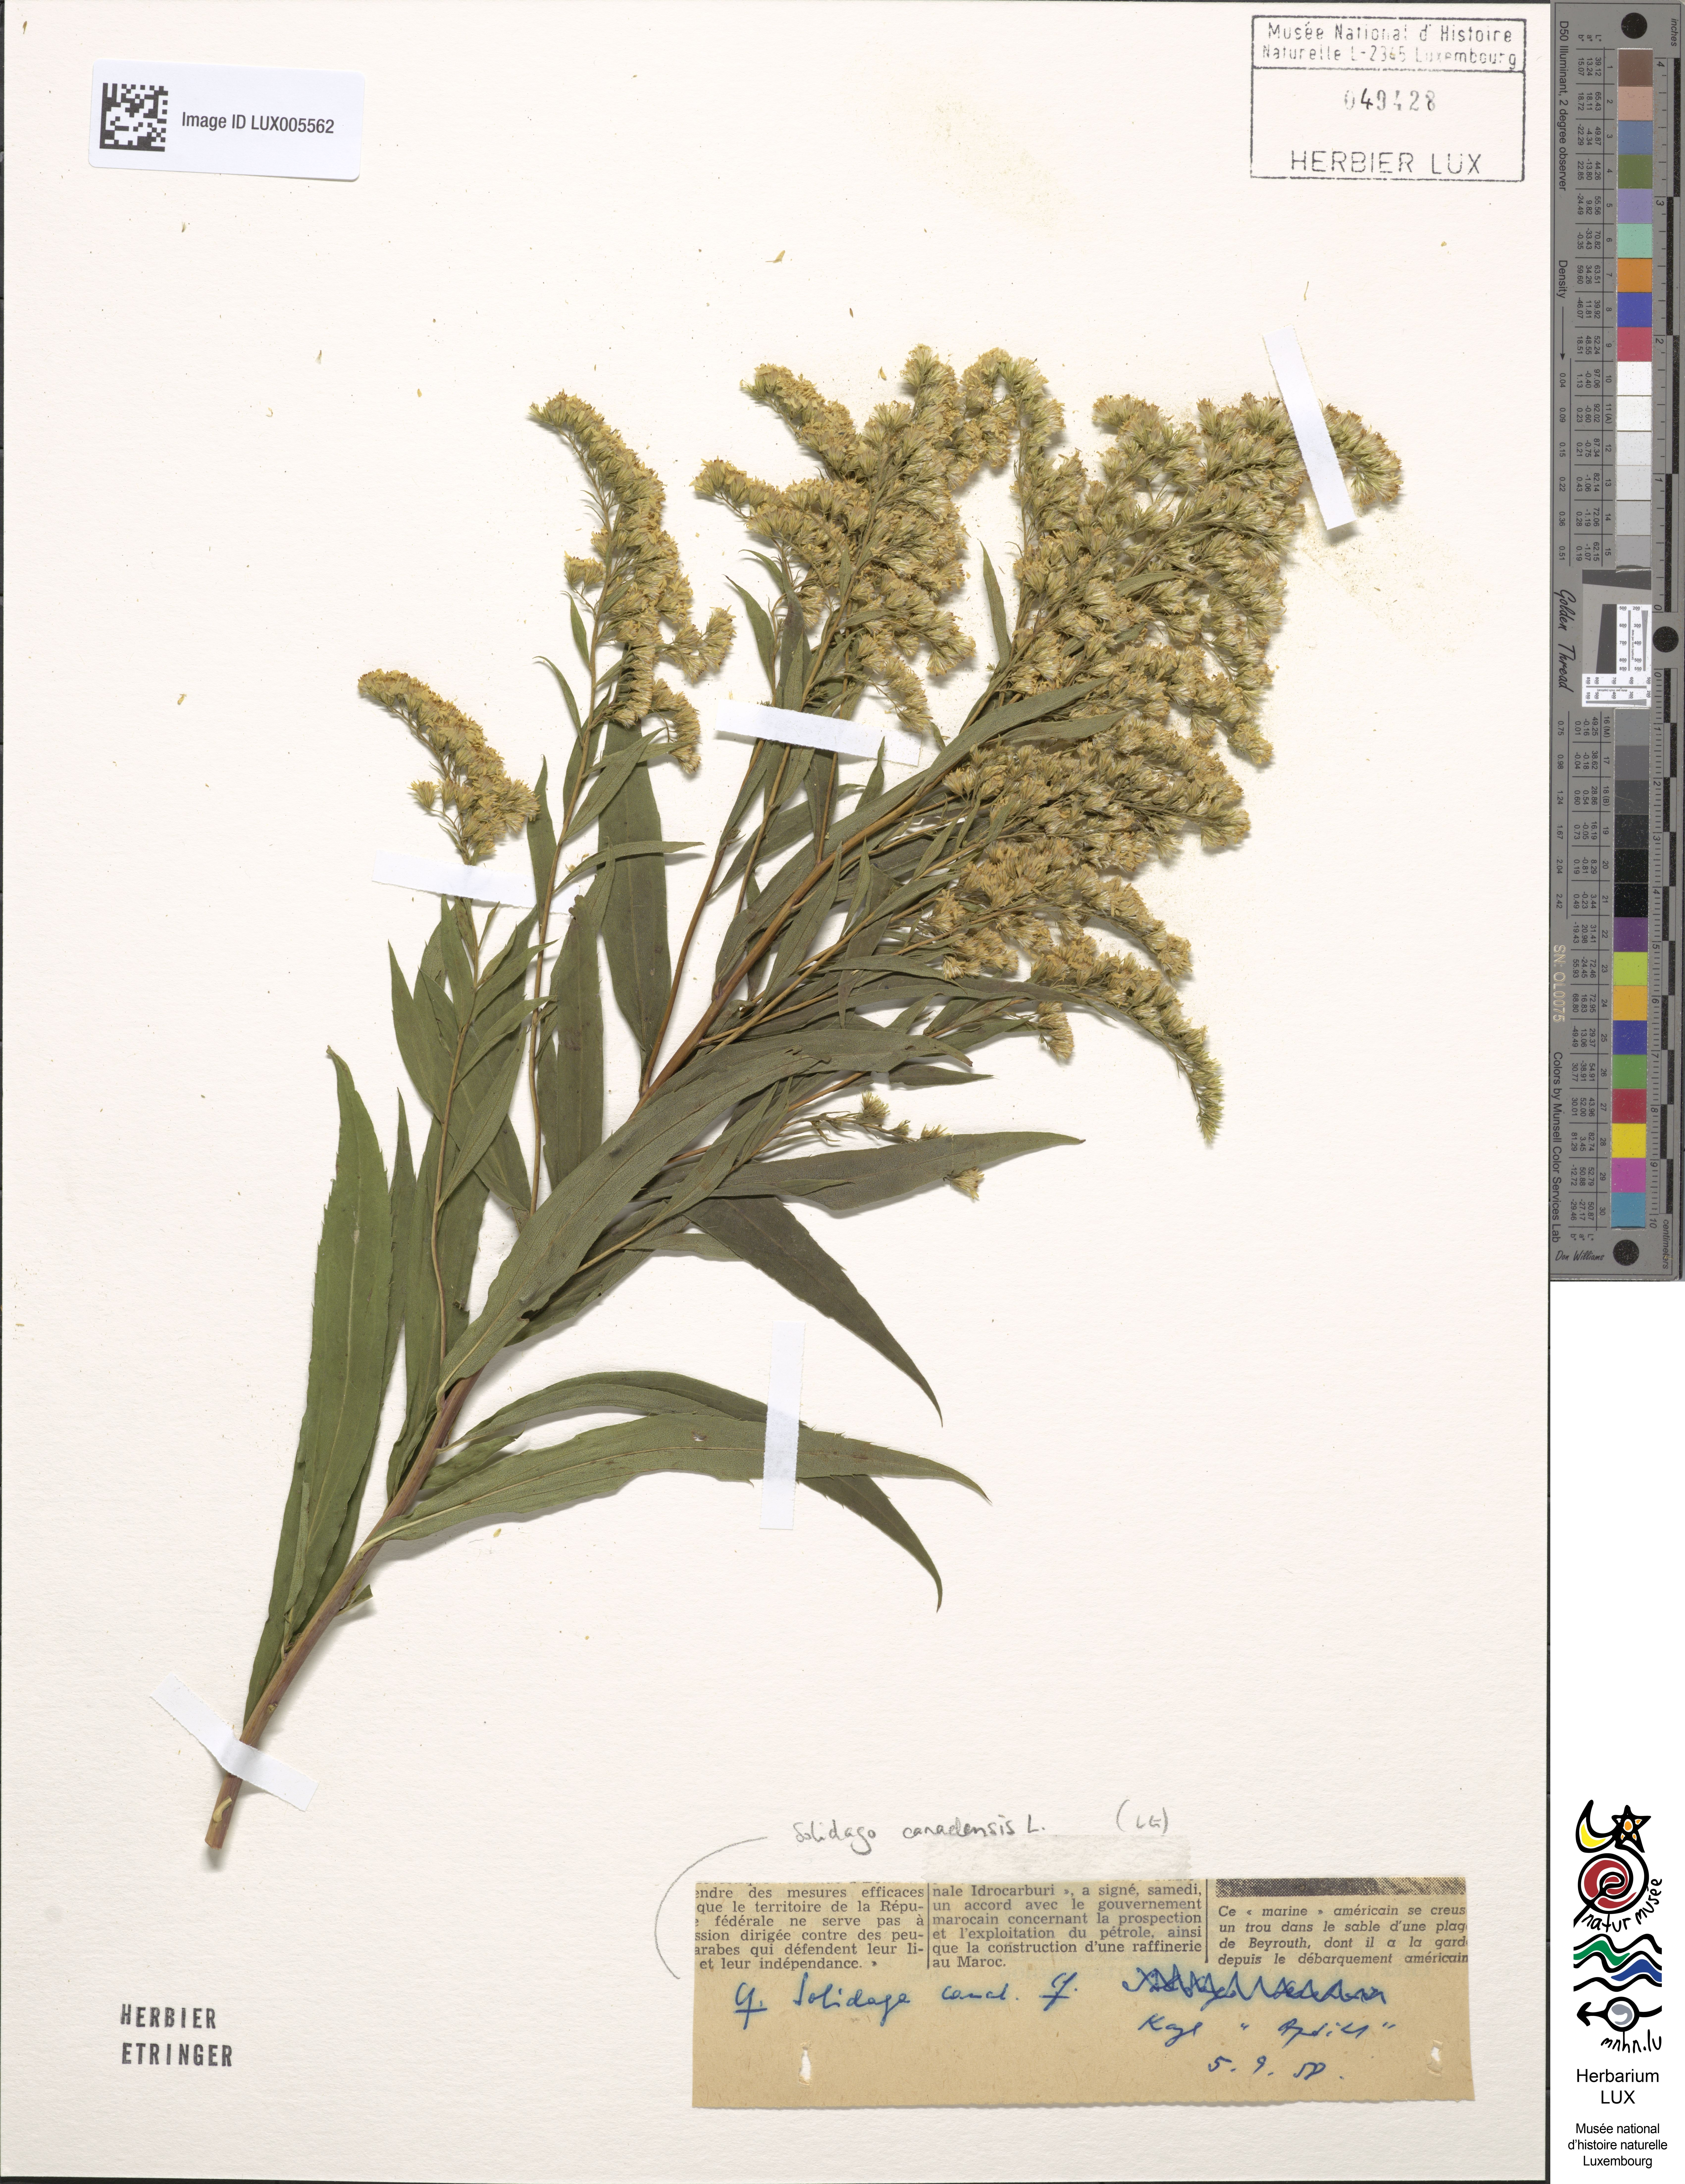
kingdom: Plantae
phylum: Tracheophyta
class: Magnoliopsida
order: Asterales
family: Asteraceae
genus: Solidago
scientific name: Solidago canadensis
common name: Canada goldenrod
